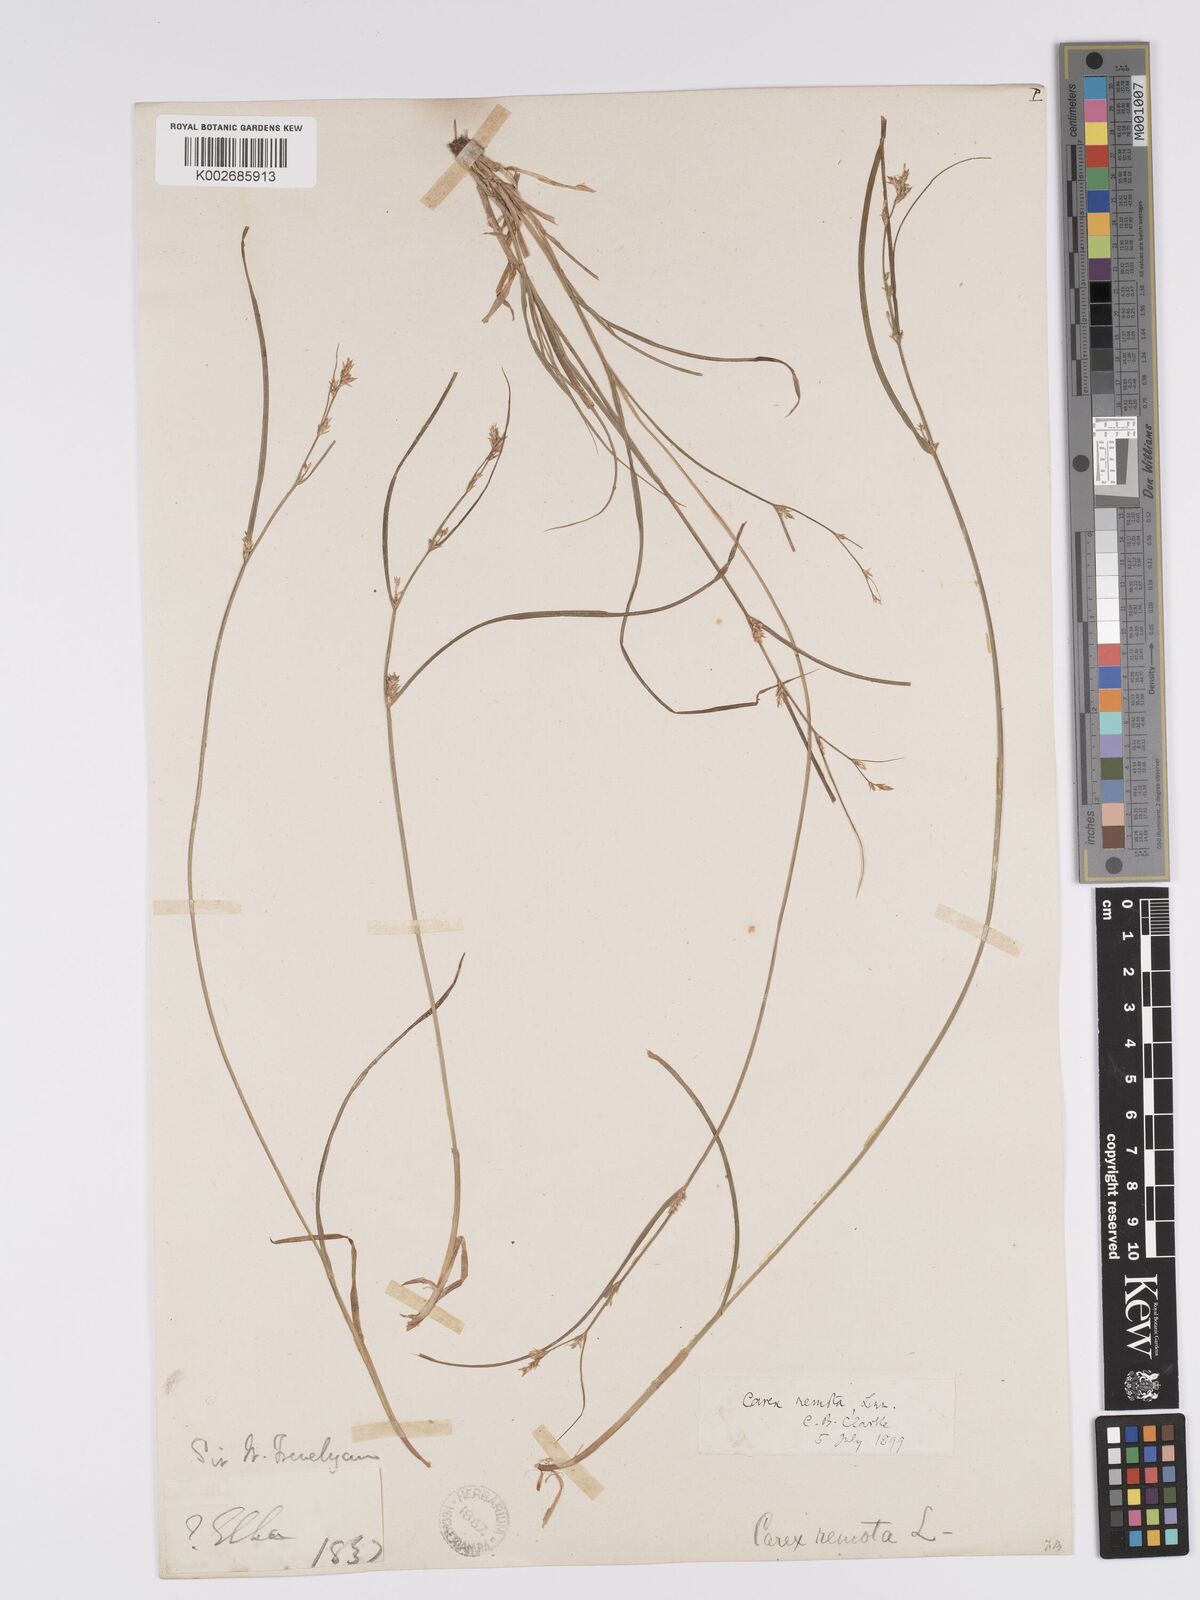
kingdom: Plantae
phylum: Tracheophyta
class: Liliopsida
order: Poales
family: Cyperaceae
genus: Carex
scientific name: Carex remota
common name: Remote sedge
